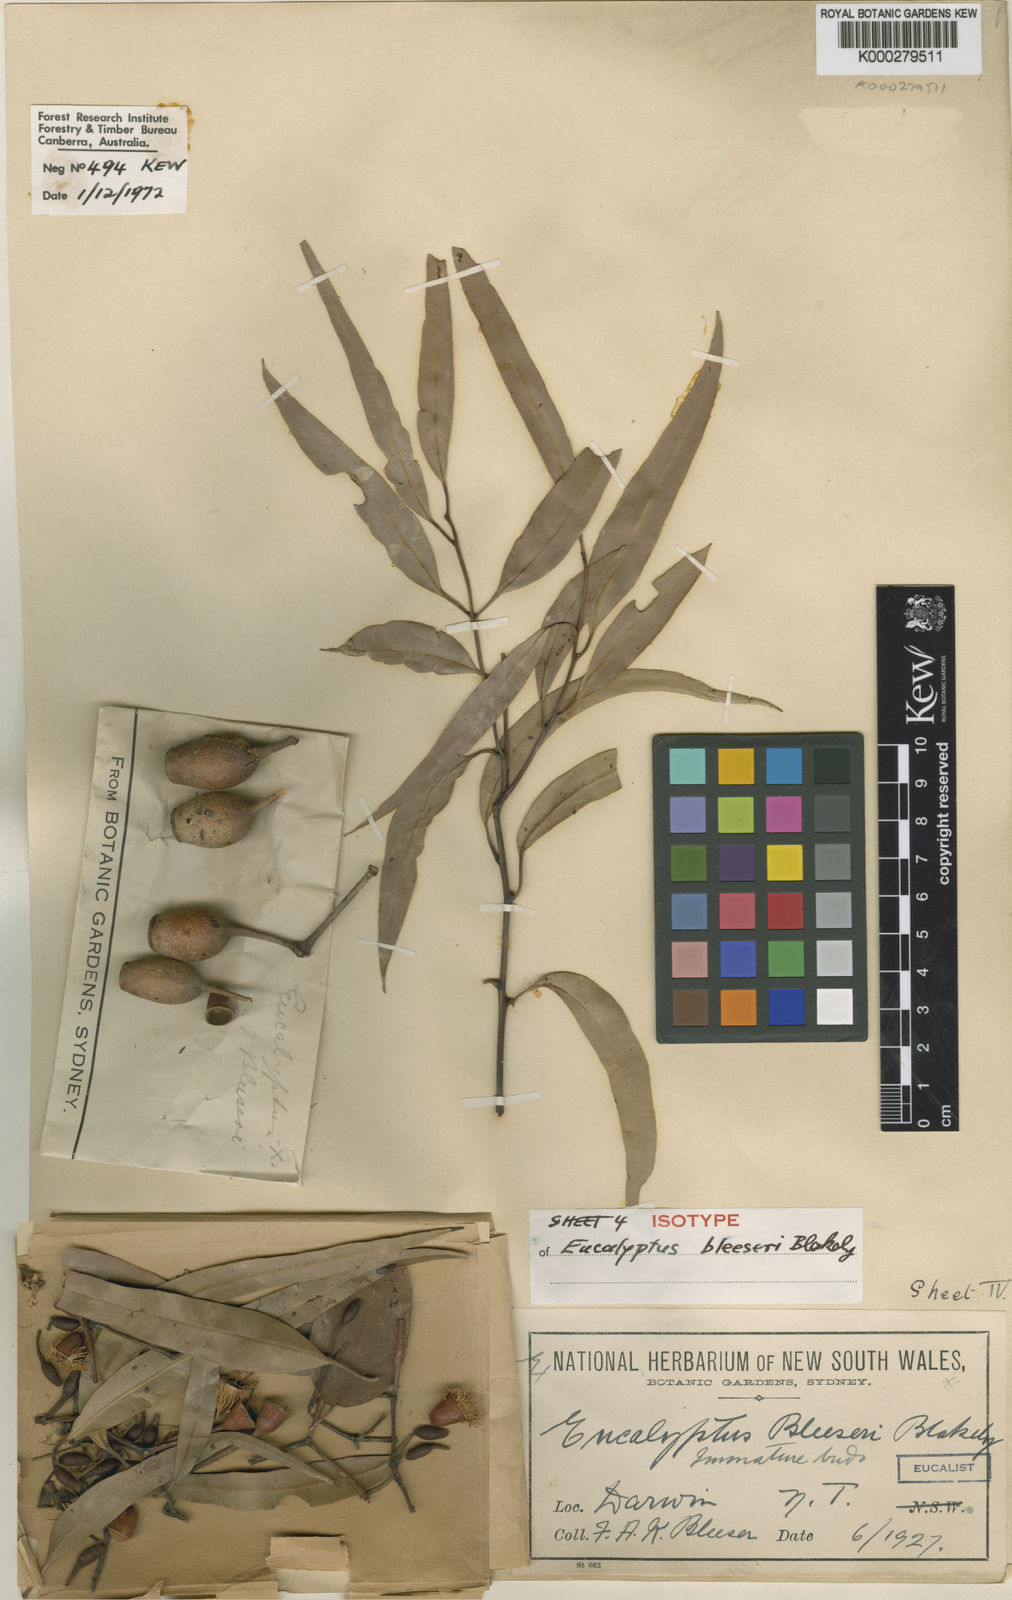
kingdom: Plantae
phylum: Tracheophyta
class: Magnoliopsida
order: Myrtales
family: Myrtaceae
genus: Corymbia
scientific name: Corymbia bleeseri
